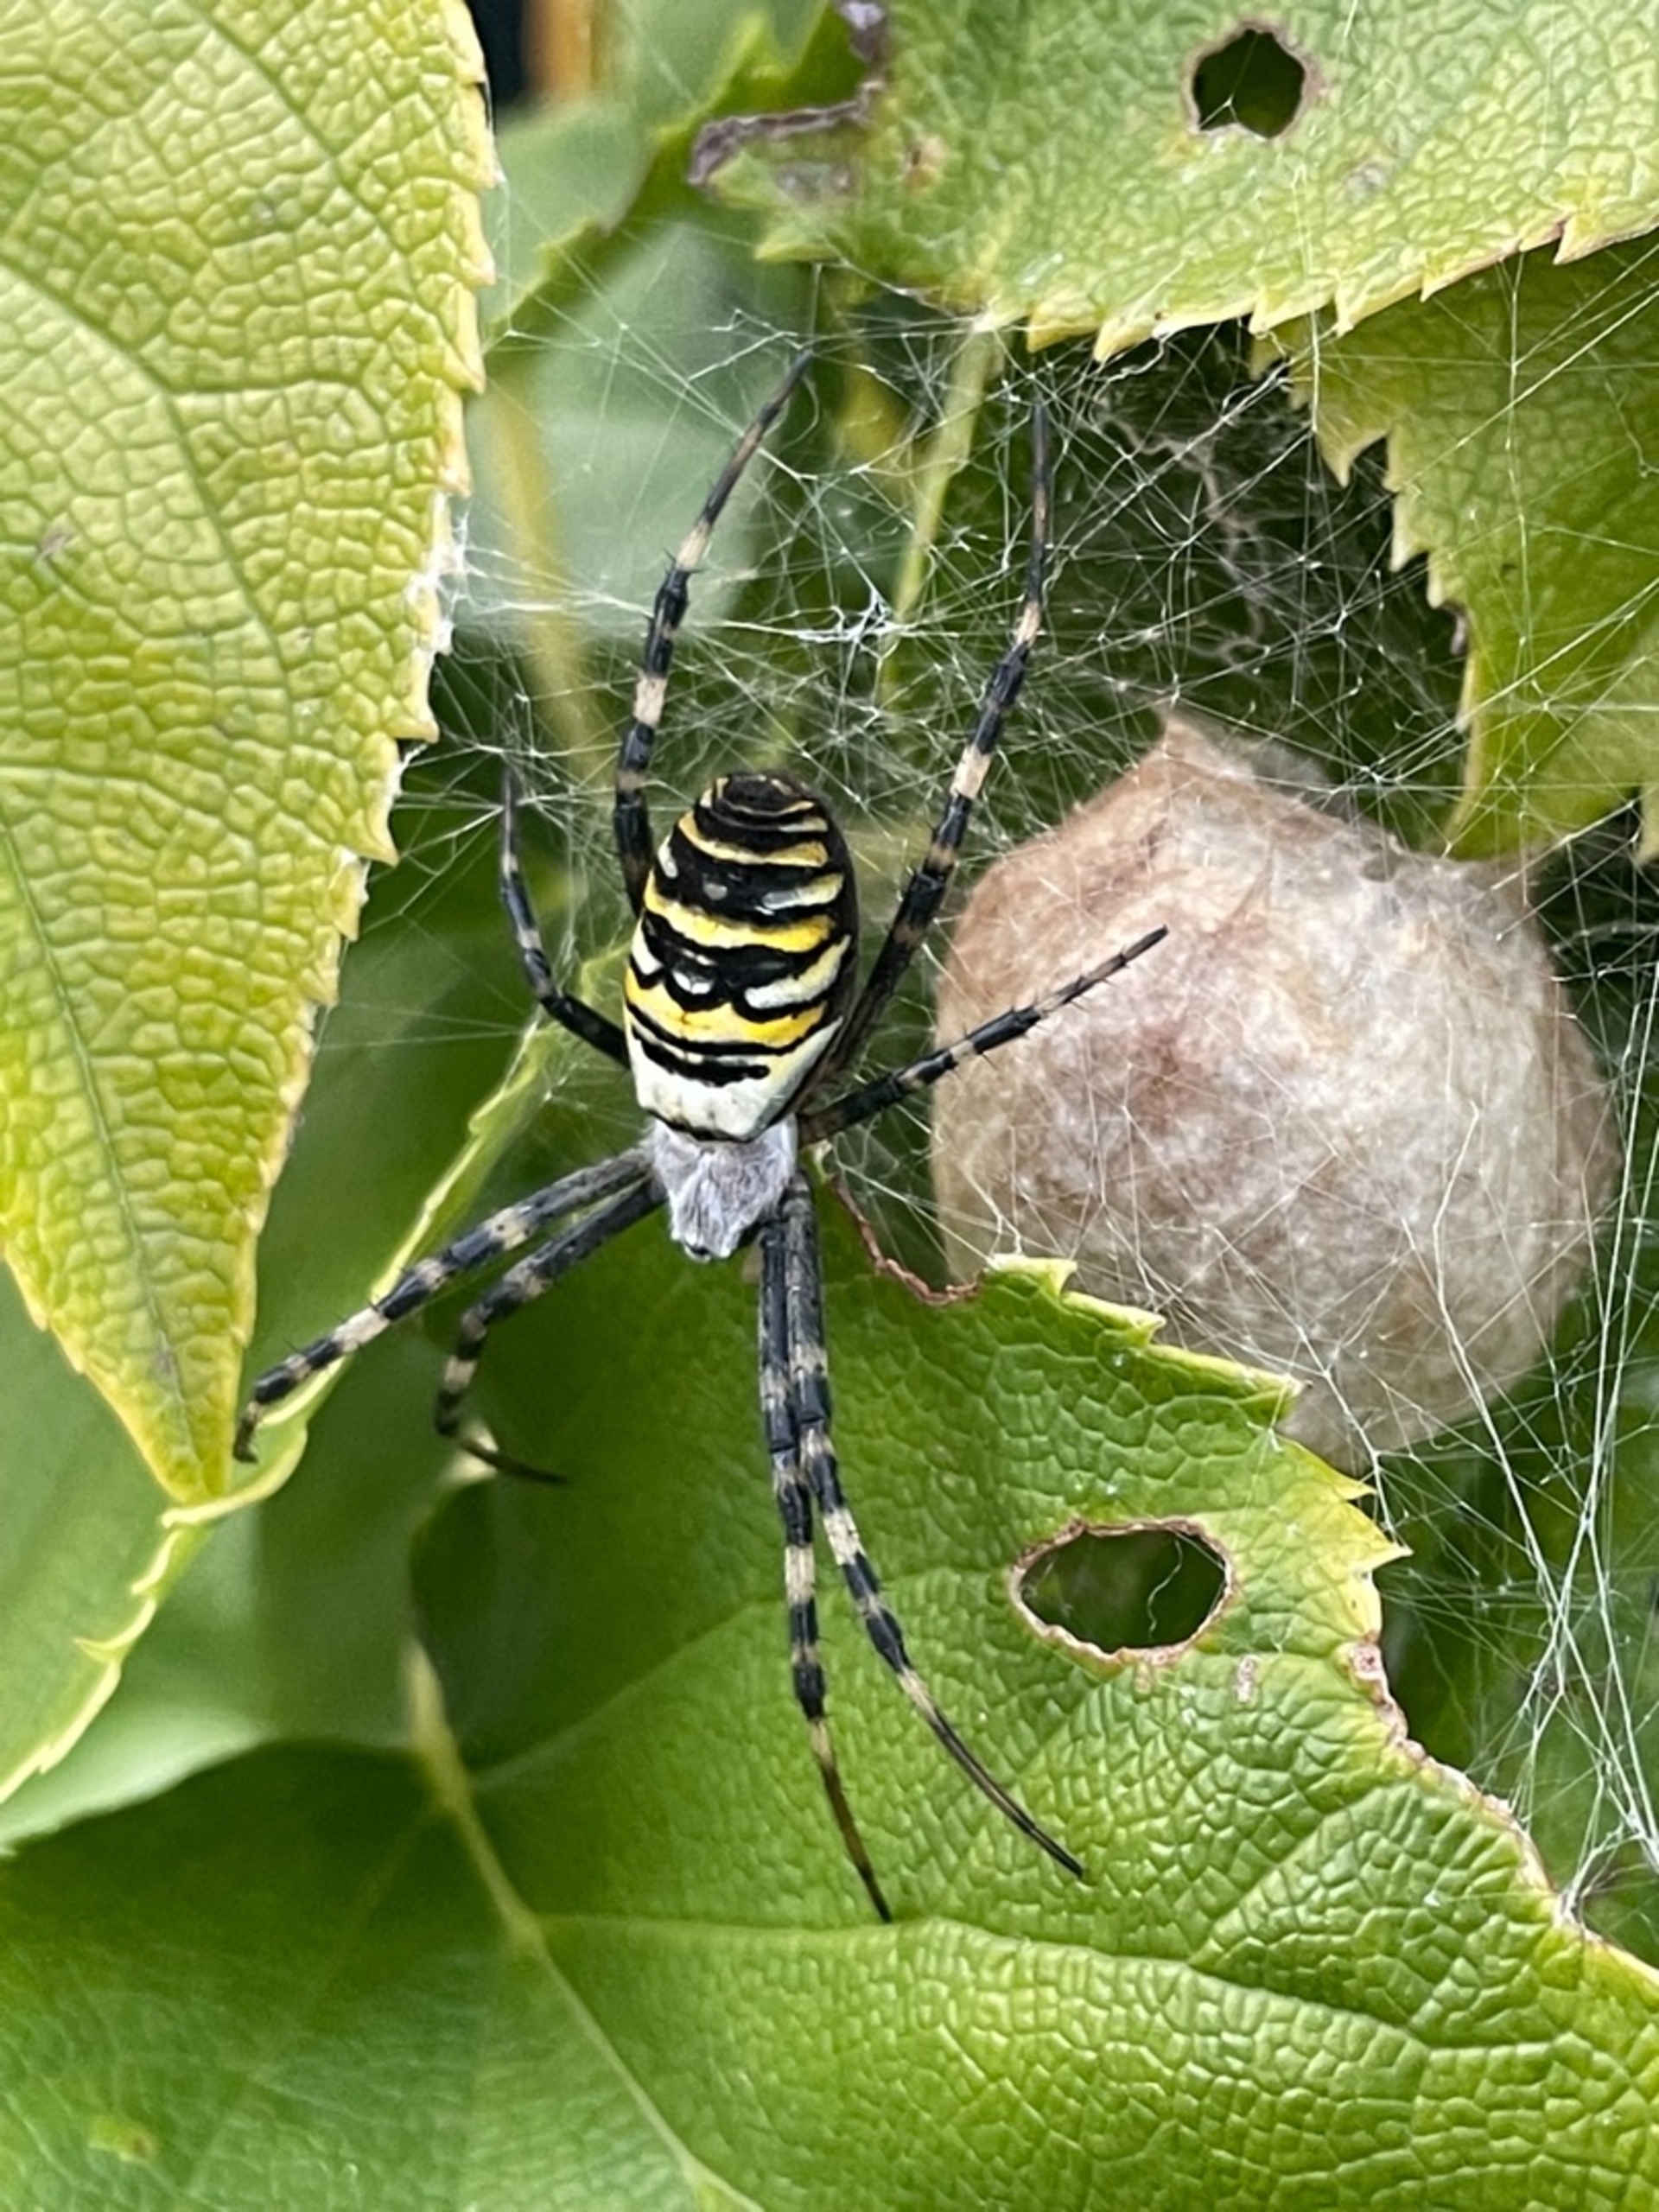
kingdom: Animalia
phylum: Arthropoda
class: Arachnida
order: Araneae
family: Araneidae
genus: Argiope
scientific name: Argiope bruennichi
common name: Hvepseedderkop
